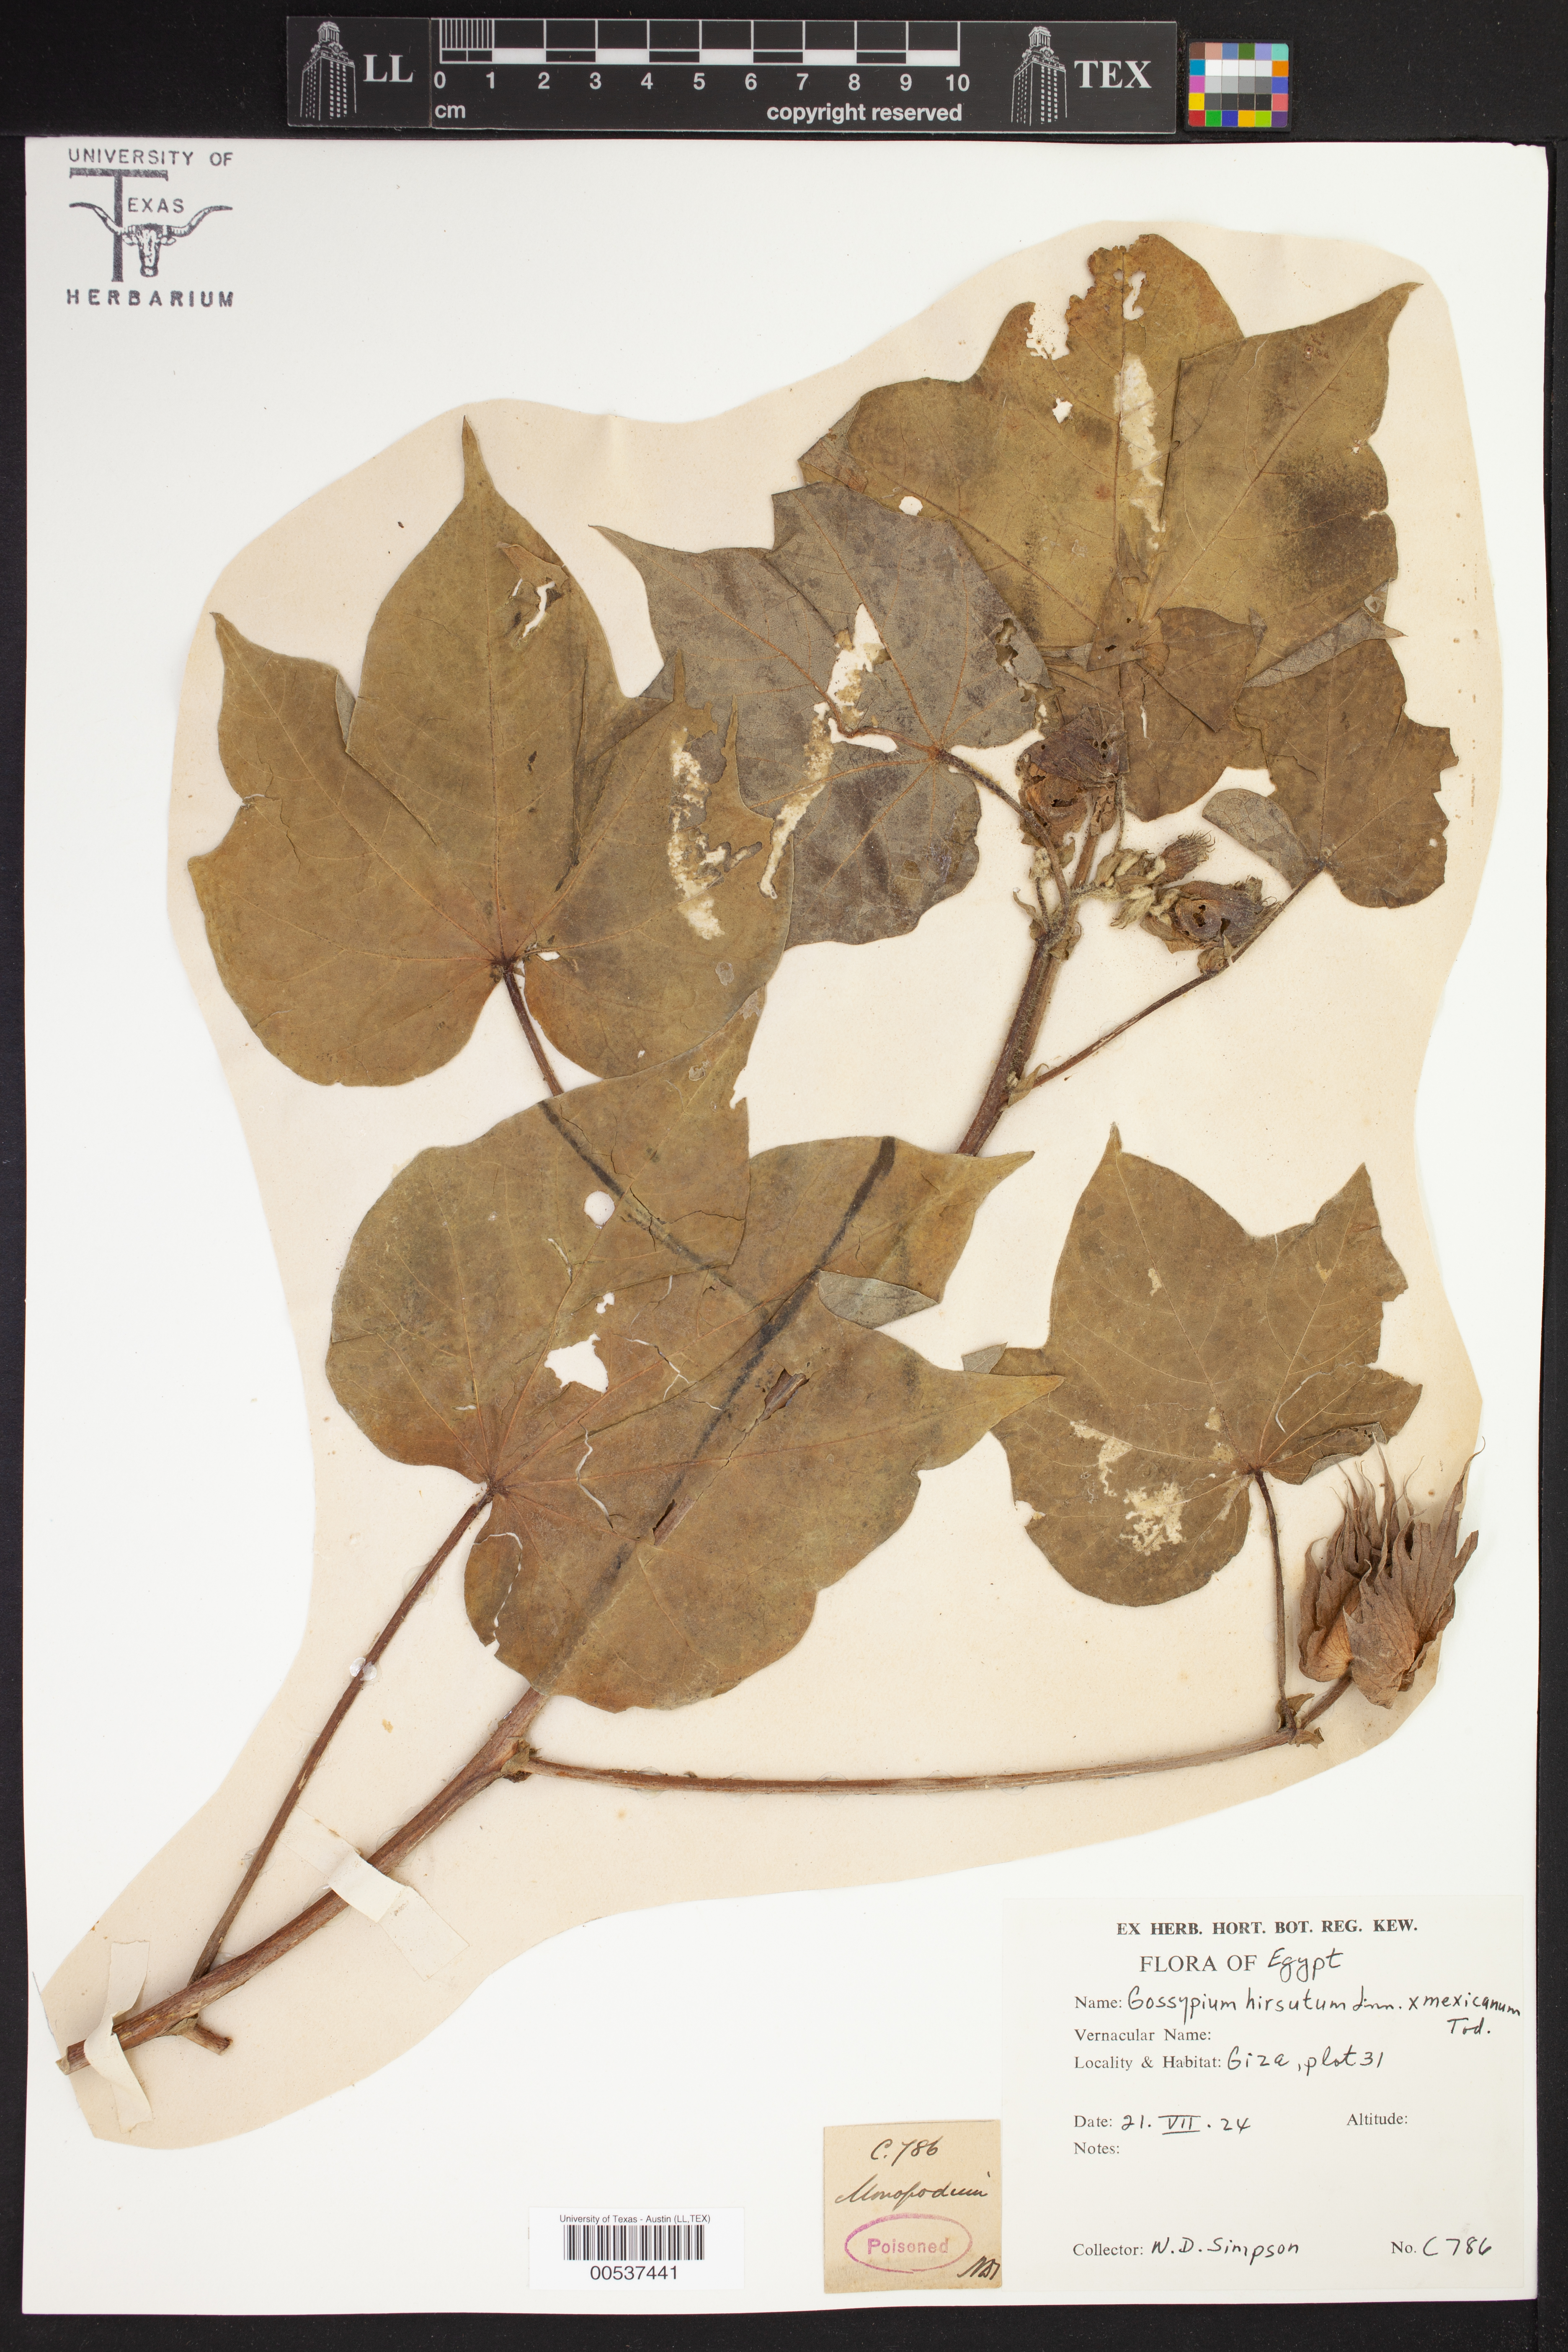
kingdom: Plantae
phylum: Tracheophyta
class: Magnoliopsida
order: Malvales
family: Malvaceae
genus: Gossypium
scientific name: Gossypium hirsutum
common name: Cotton
